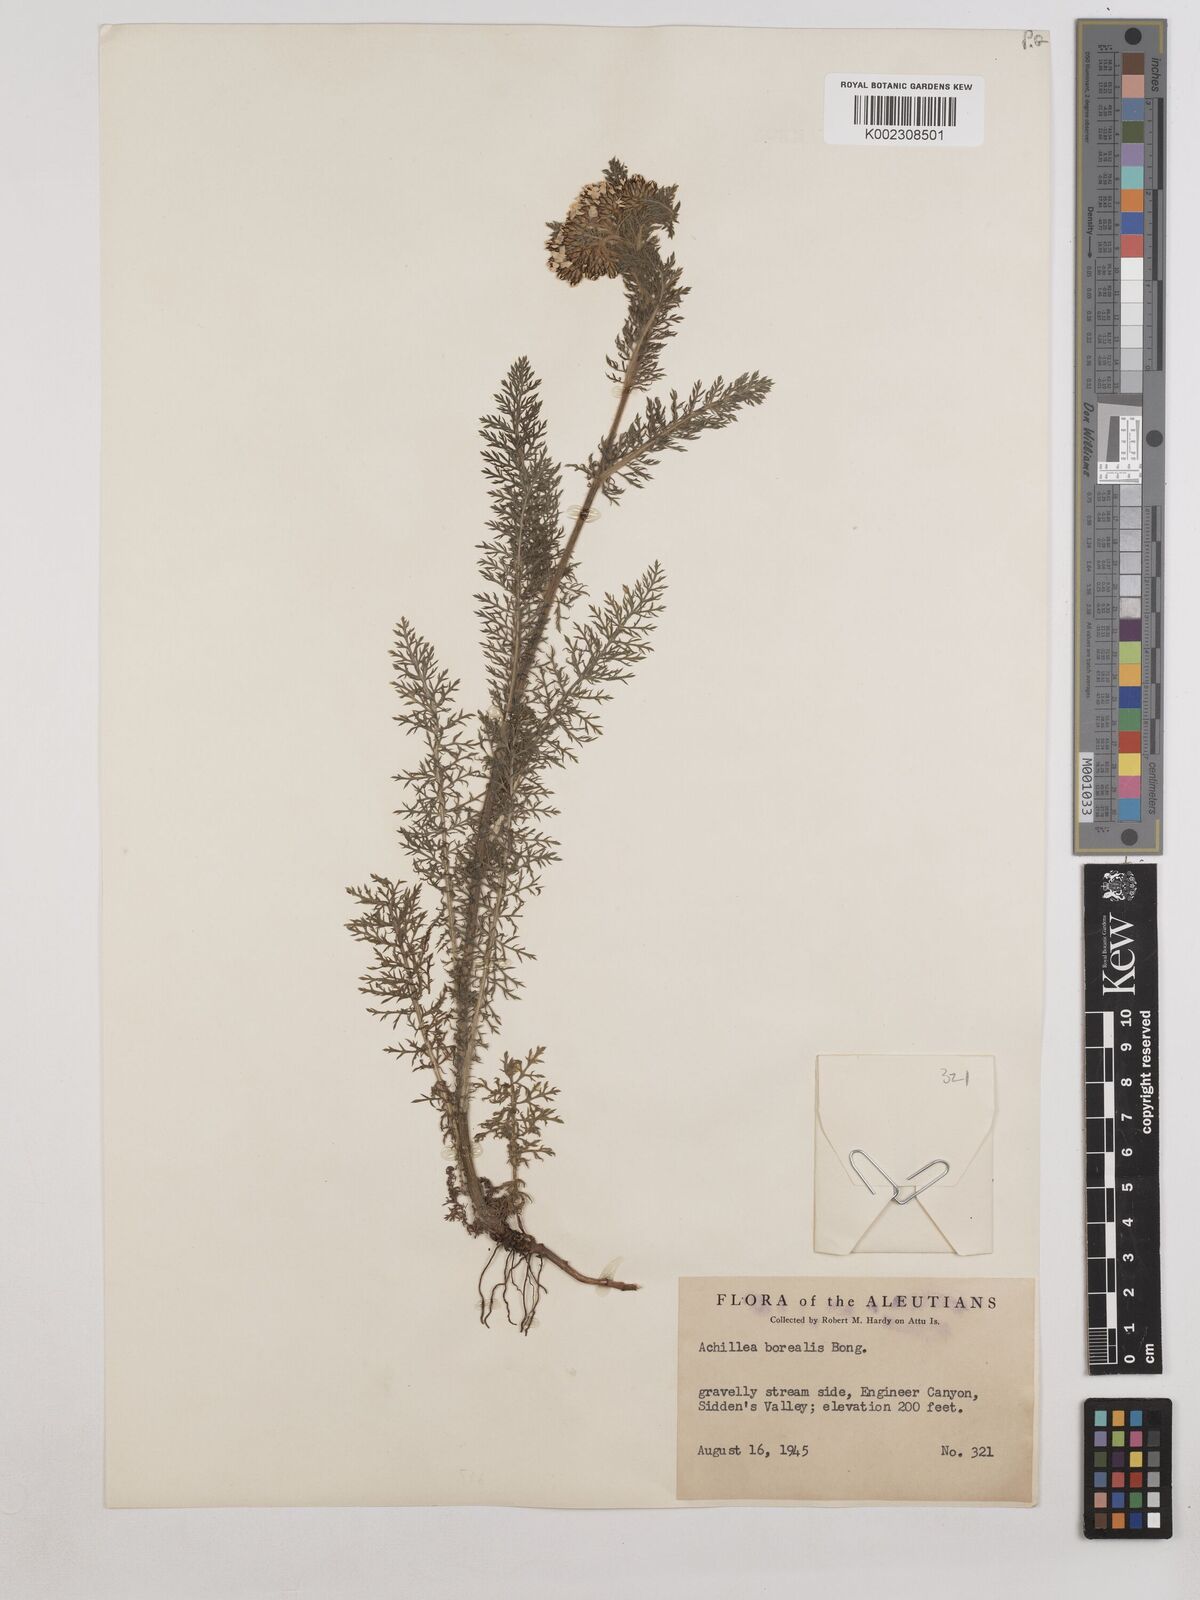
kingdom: Plantae
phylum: Tracheophyta
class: Magnoliopsida
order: Asterales
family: Asteraceae
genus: Achillea
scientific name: Achillea millefolium
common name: Yarrow
